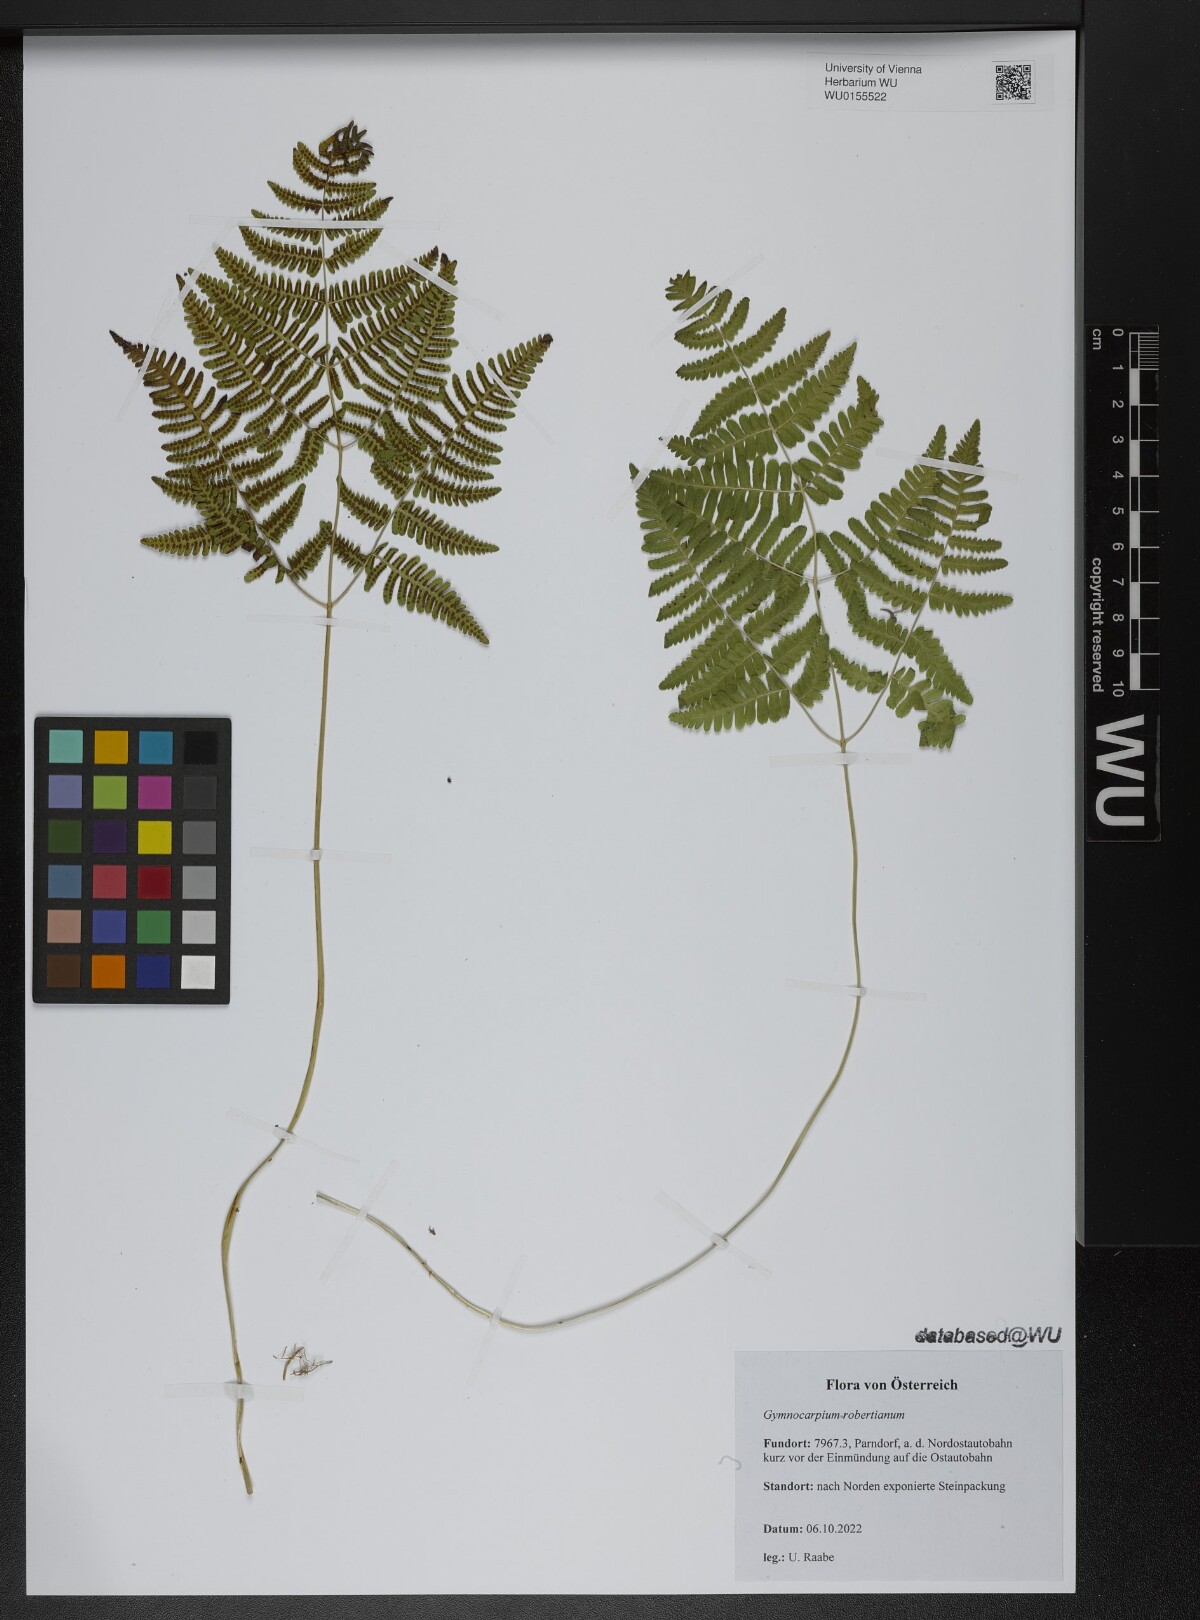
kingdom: Plantae
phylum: Tracheophyta
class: Polypodiopsida
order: Polypodiales
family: Cystopteridaceae
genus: Gymnocarpium
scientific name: Gymnocarpium robertianum
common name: Limestone fern
